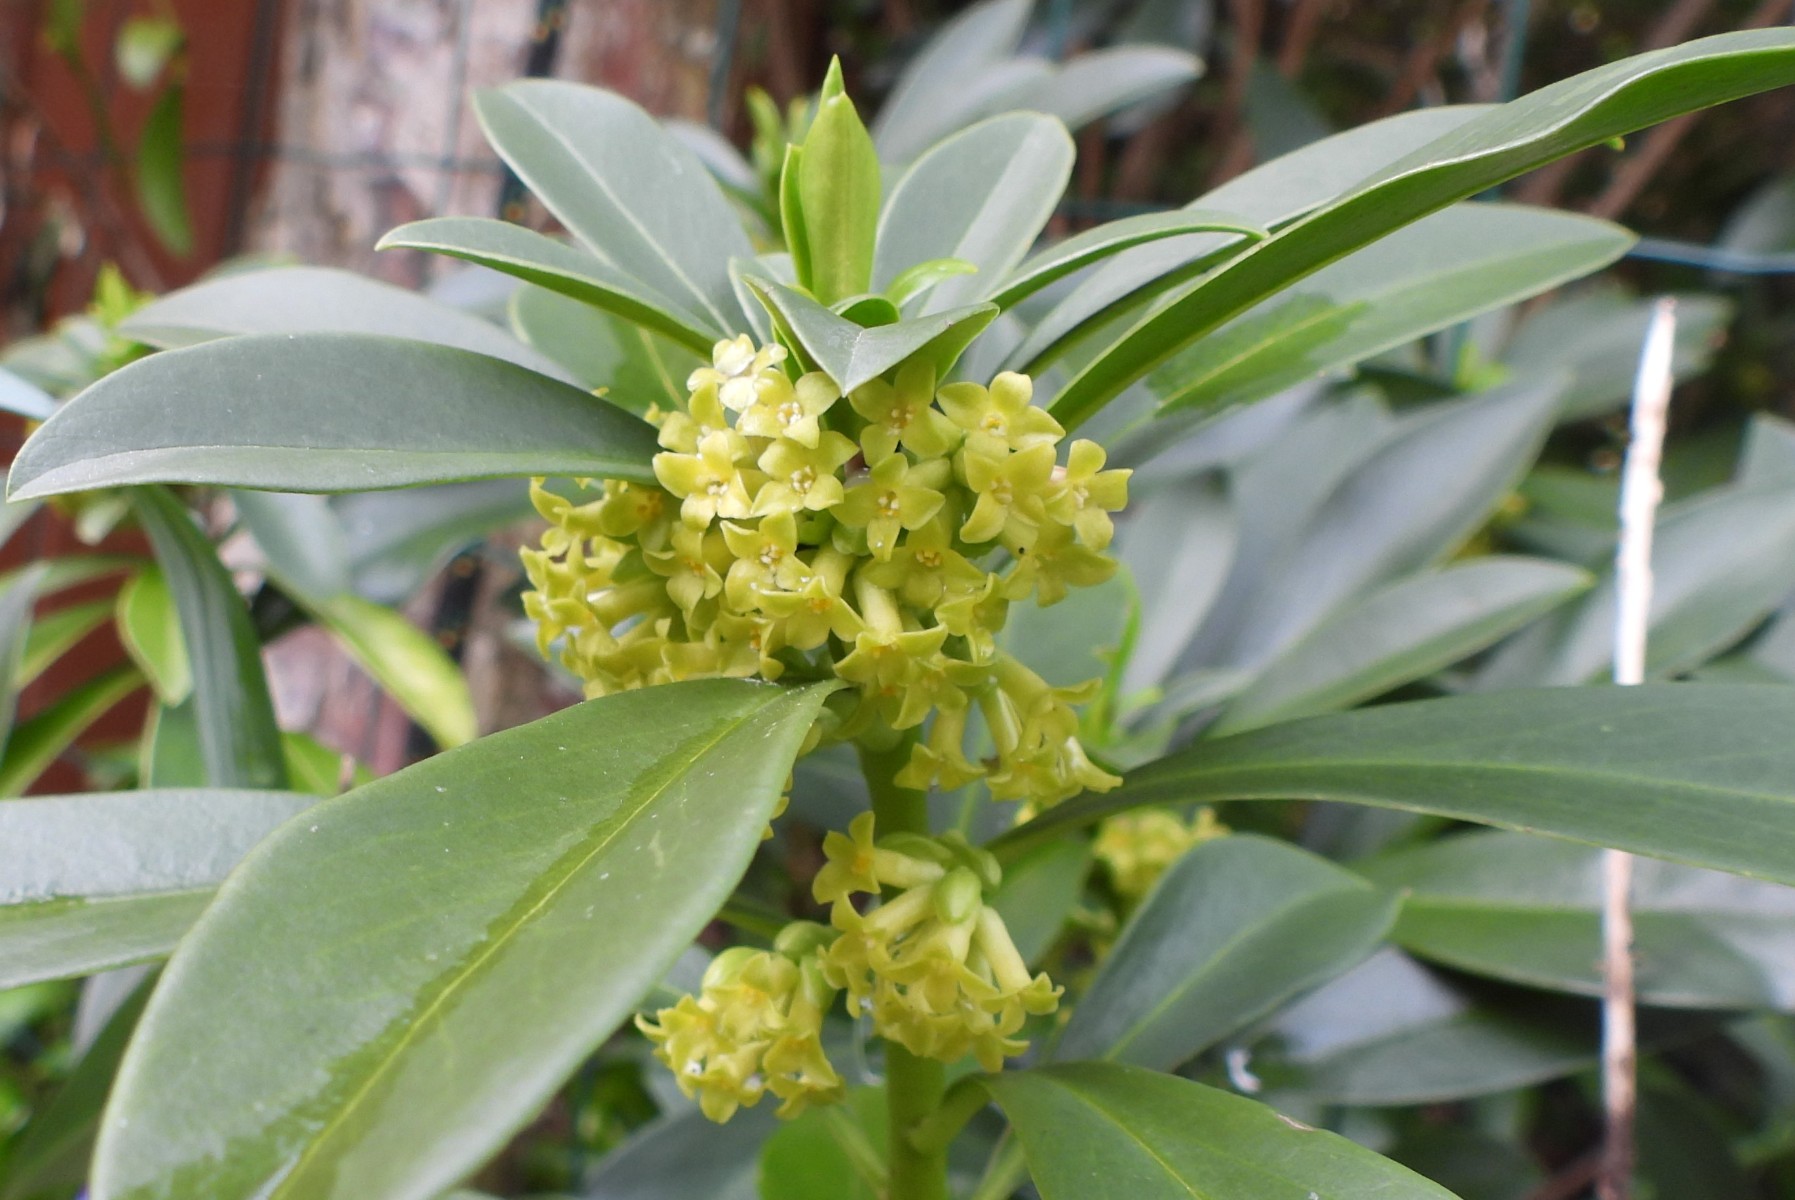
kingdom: Fungi
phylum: Ascomycota
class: Sordariomycetes
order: Hypocreales
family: Nectriaceae
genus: Nectria
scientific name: Nectria cinnabarina
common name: almindelig cinnobersvamp
